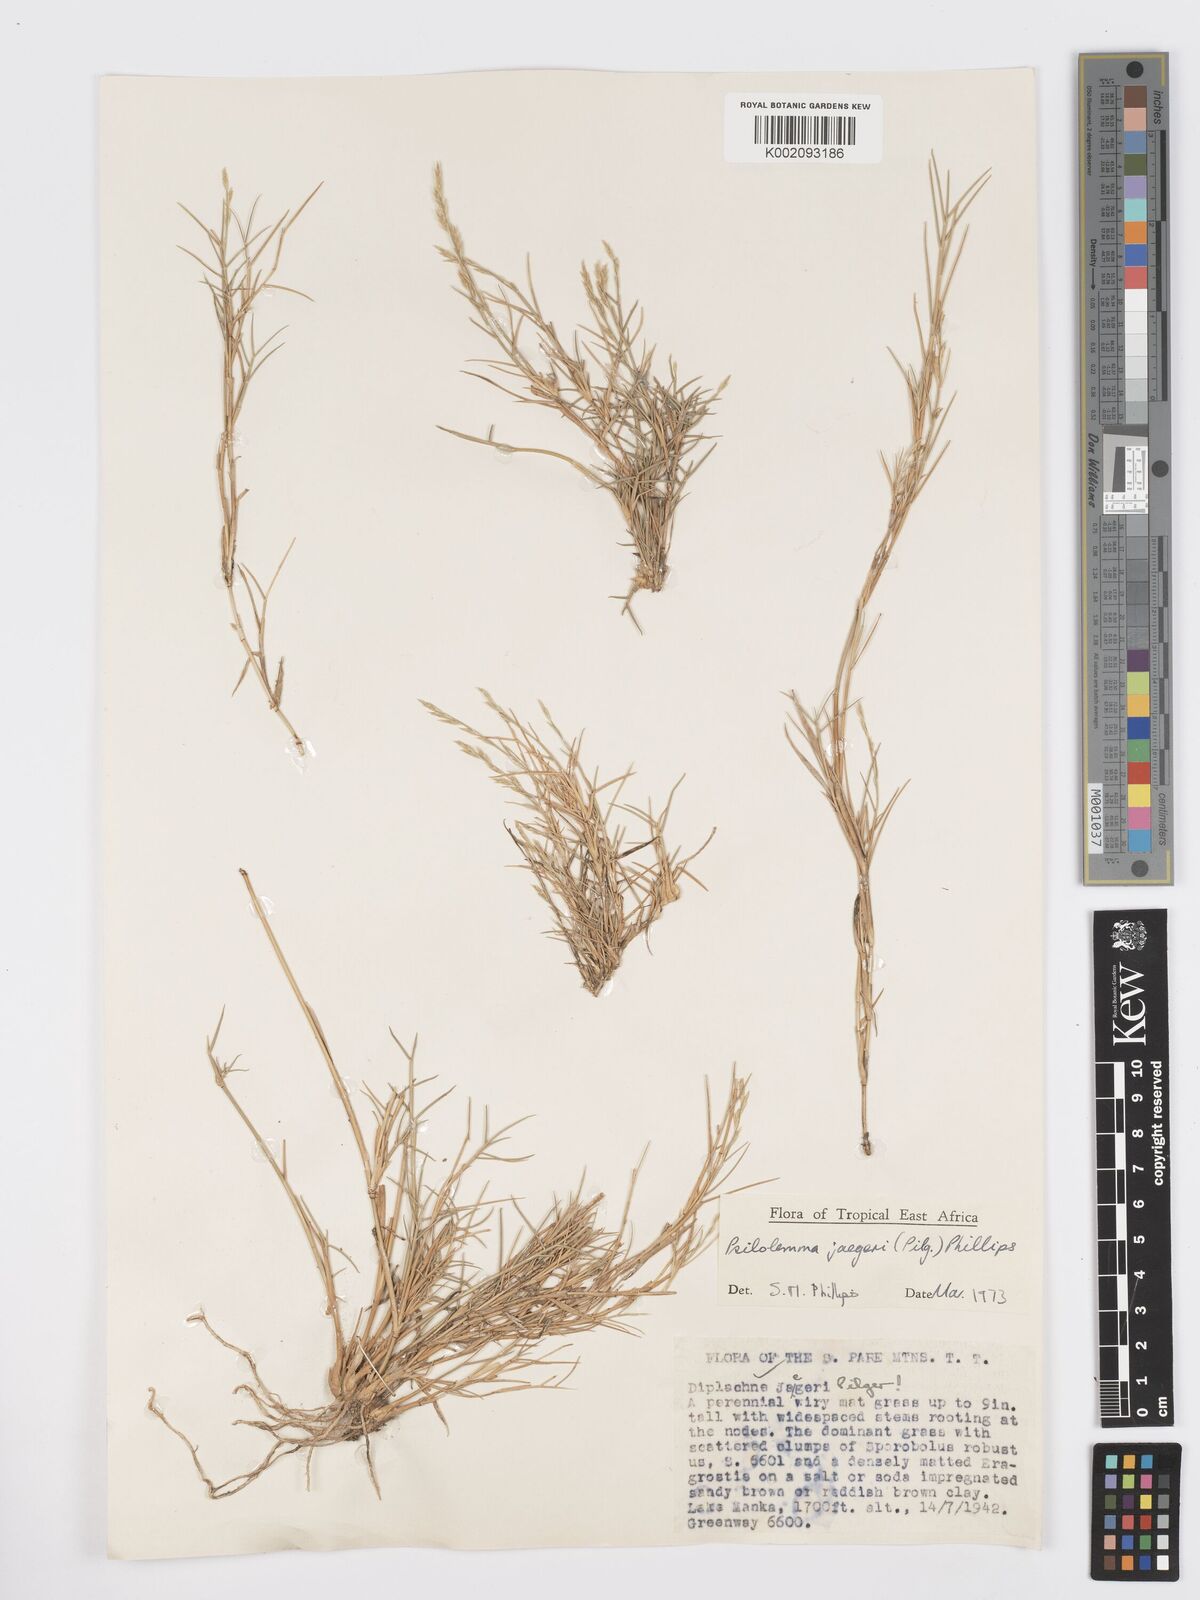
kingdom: Plantae
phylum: Tracheophyta
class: Liliopsida
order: Poales
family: Poaceae
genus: Psilolemma
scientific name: Psilolemma jaegeri
